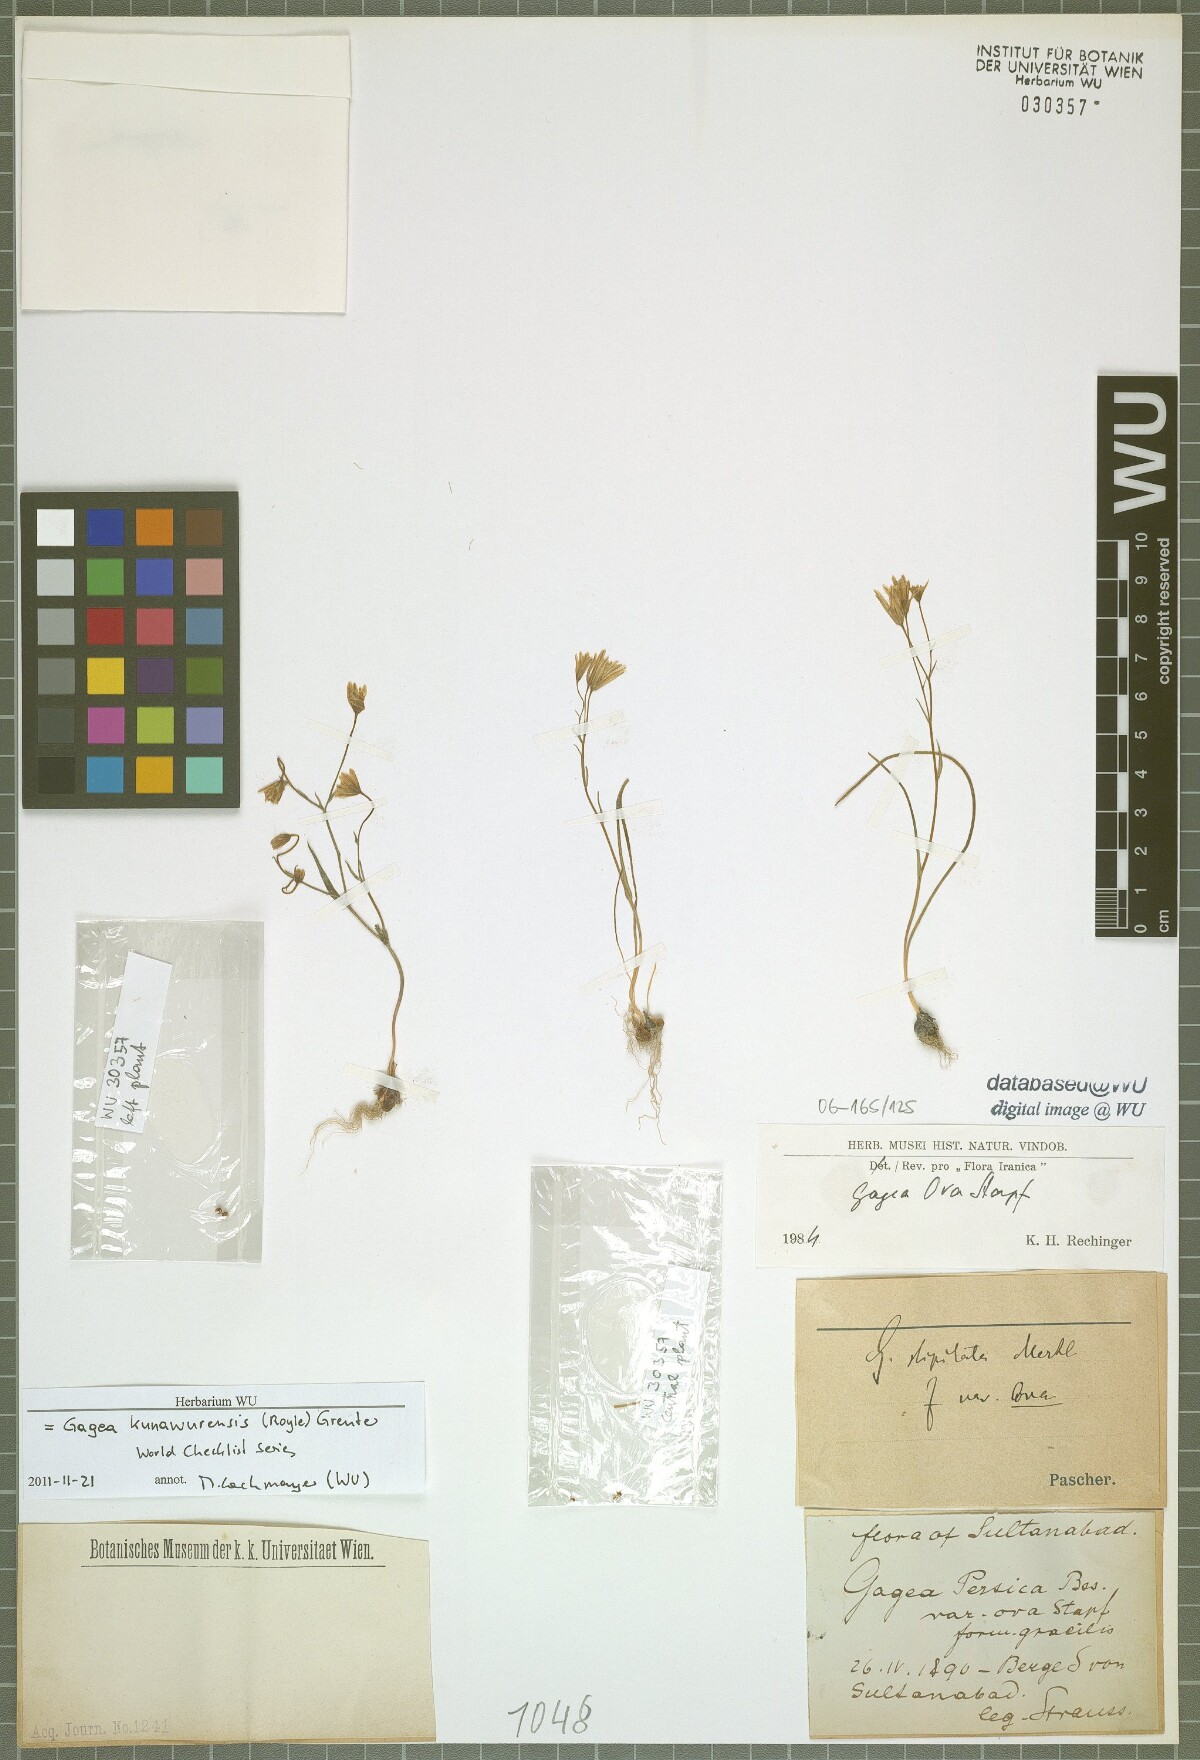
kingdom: Plantae
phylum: Tracheophyta
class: Liliopsida
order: Liliales
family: Liliaceae
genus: Gagea
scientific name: Gagea kunawurensis
